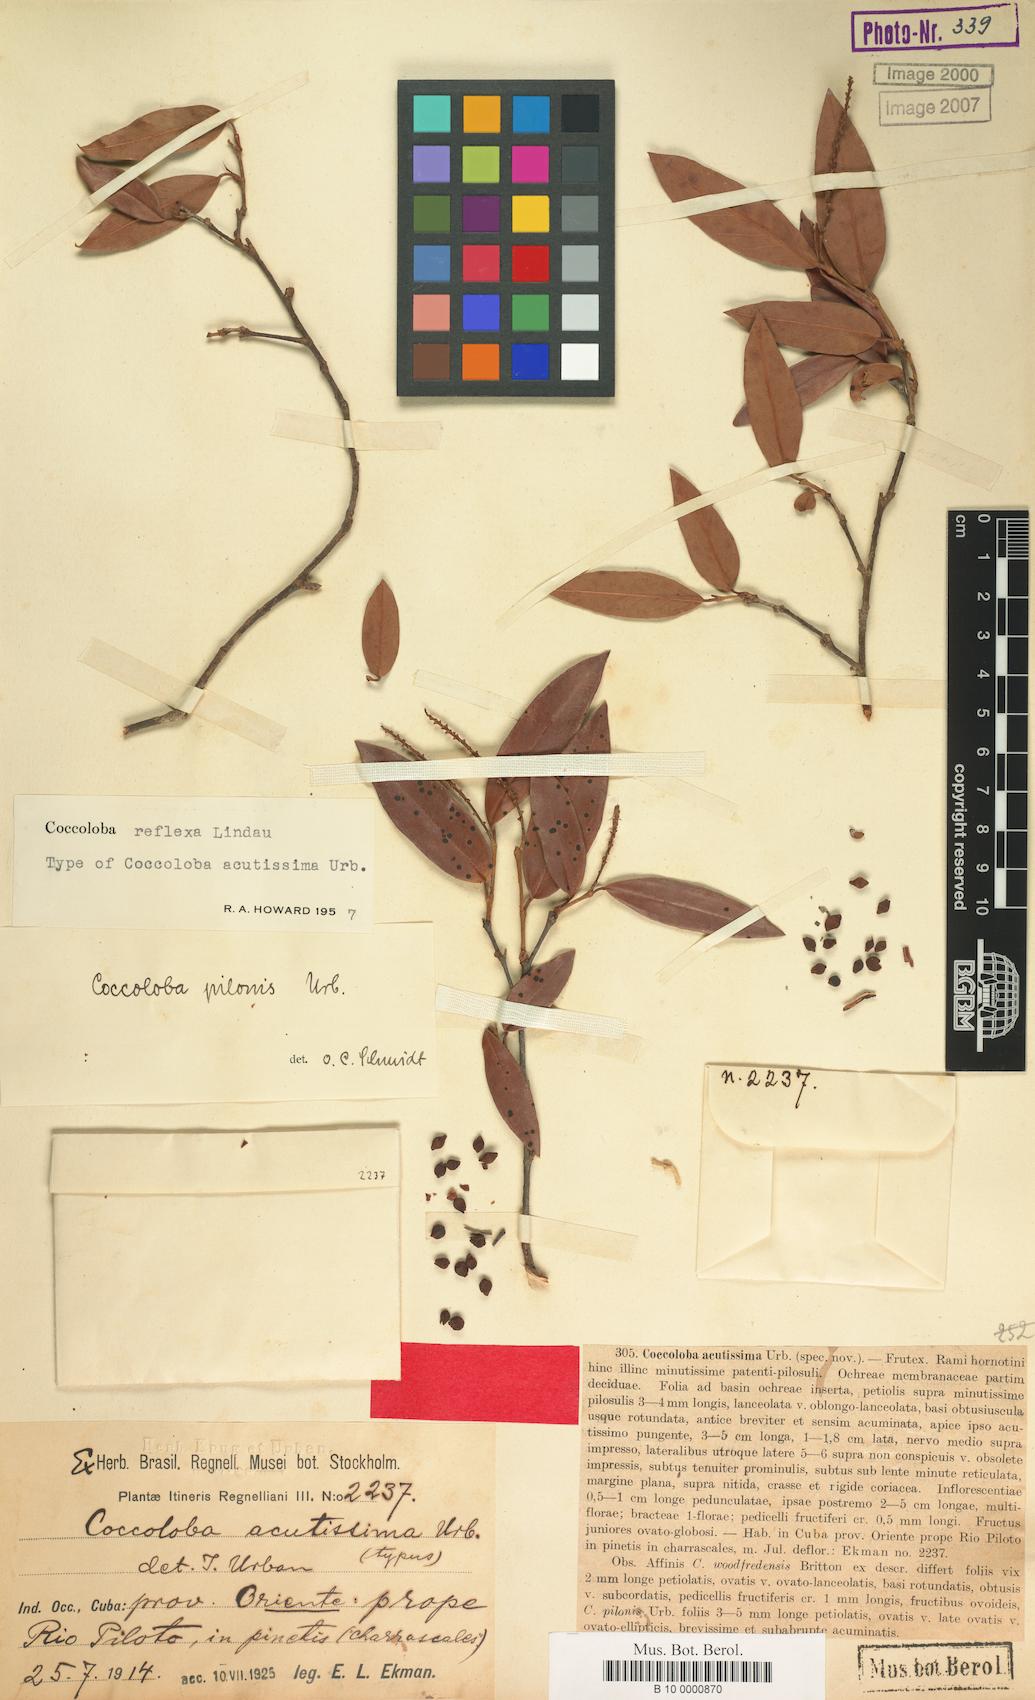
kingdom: Plantae
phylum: Tracheophyta
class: Magnoliopsida
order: Caryophyllales
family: Polygonaceae
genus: Coccoloba
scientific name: Coccoloba reflexa
